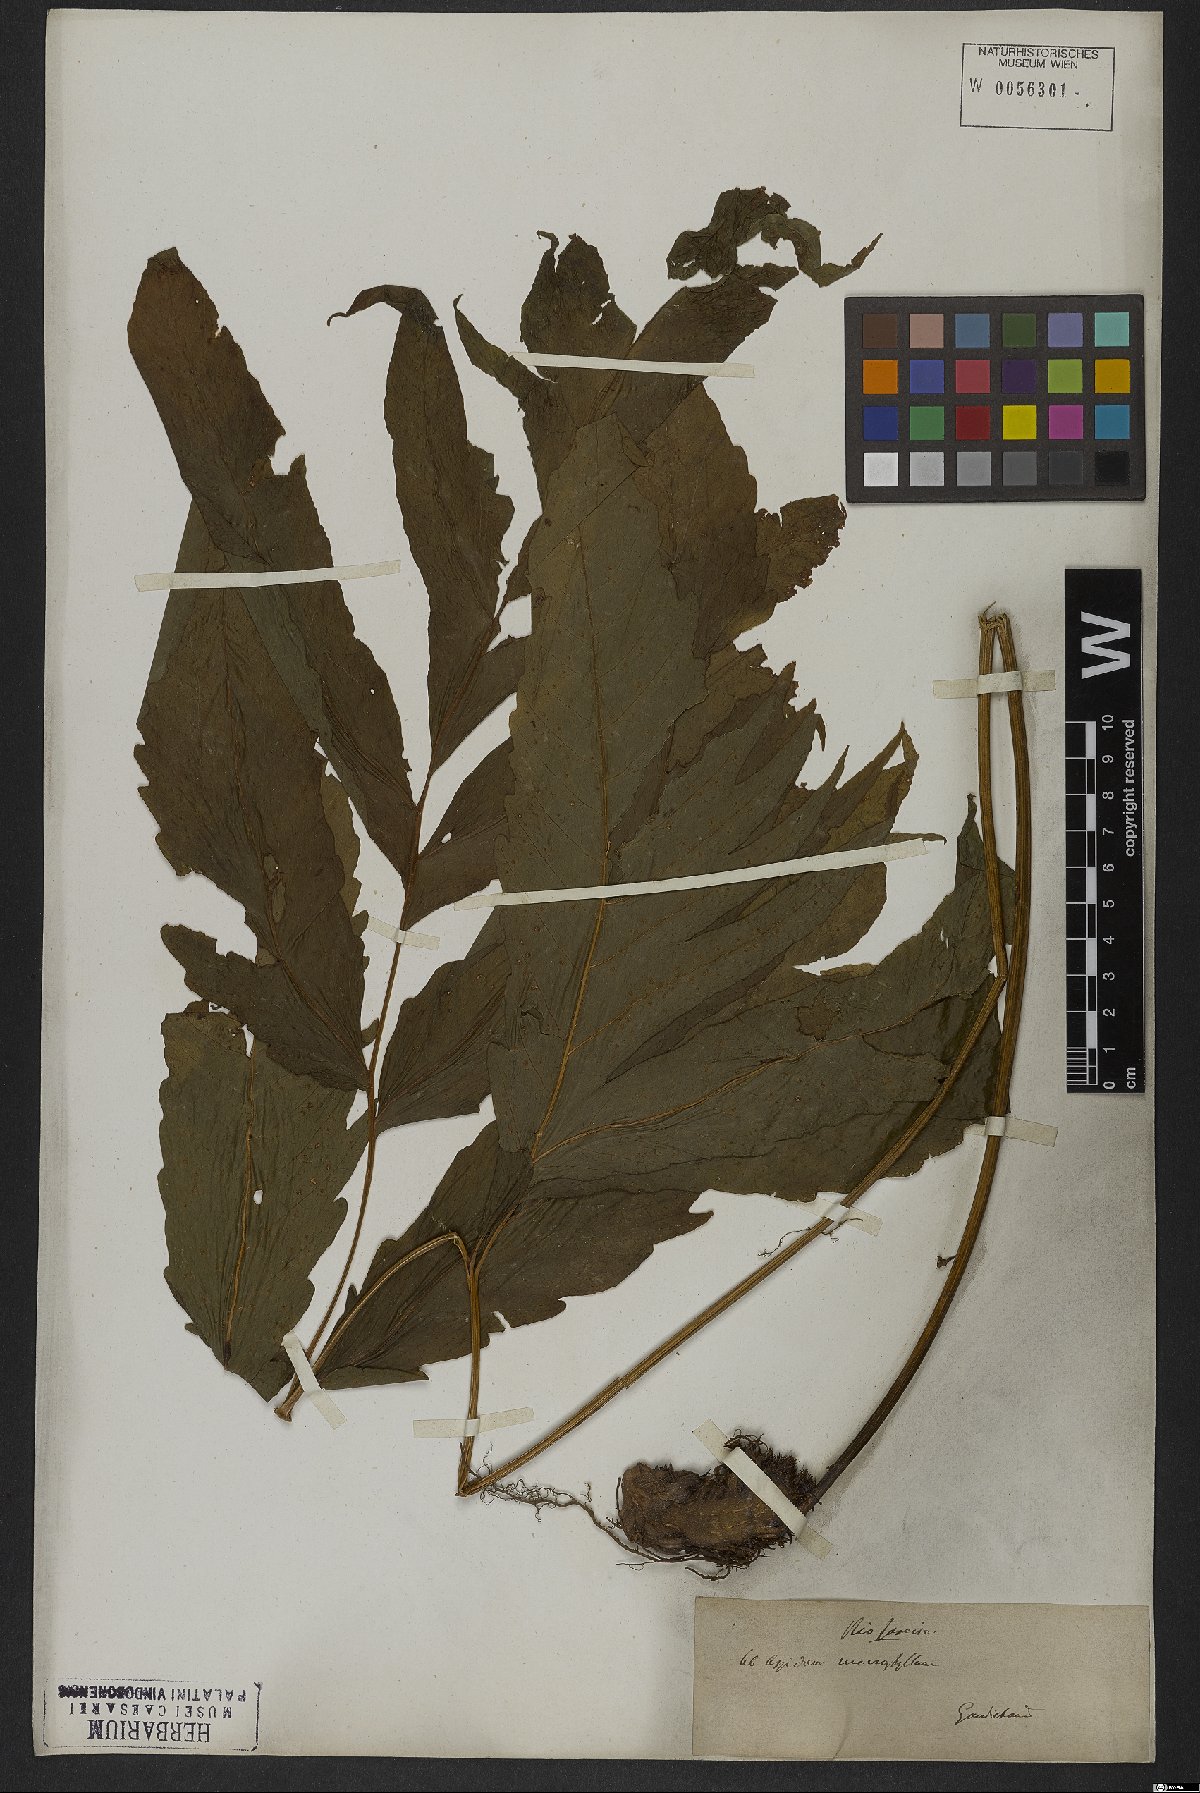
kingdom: Plantae
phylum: Tracheophyta
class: Polypodiopsida
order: Polypodiales
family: Tectariaceae
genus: Tectaria
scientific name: Tectaria incisa
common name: Incised halberd fern
